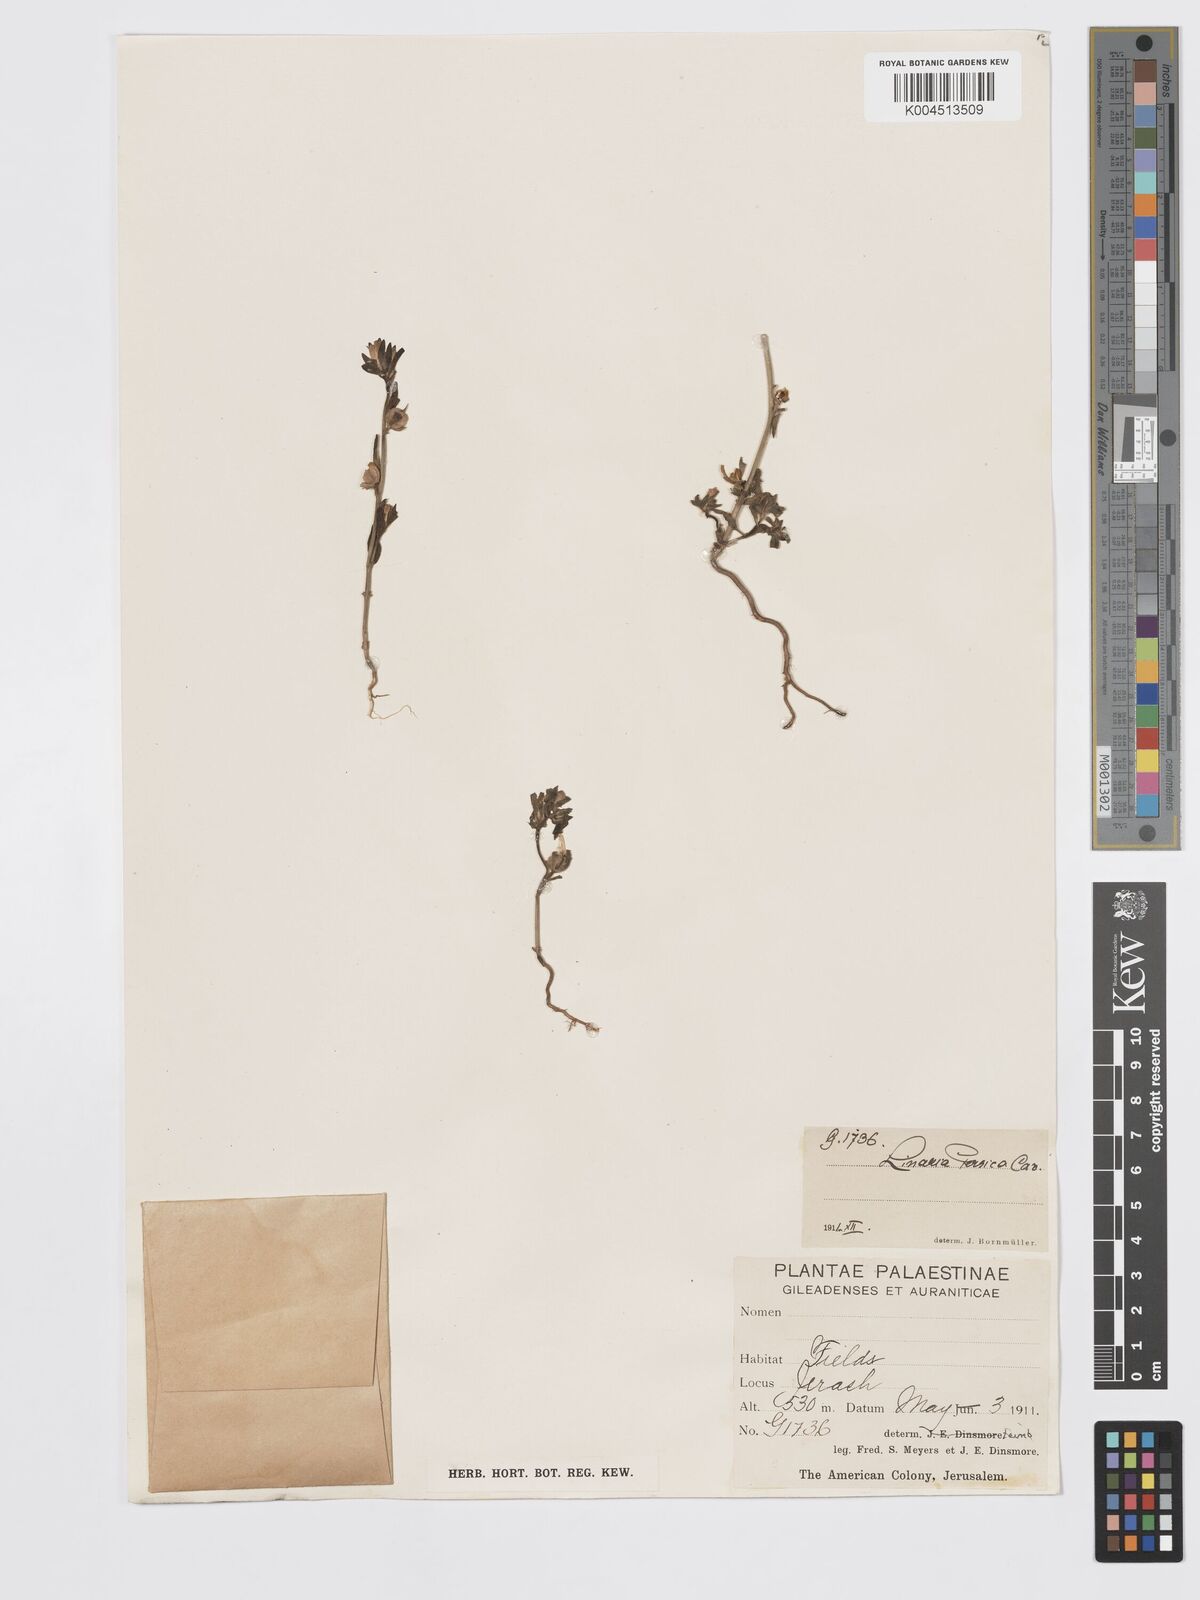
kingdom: Plantae
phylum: Tracheophyta
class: Magnoliopsida
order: Lamiales
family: Plantaginaceae
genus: Chaenorhinum
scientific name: Chaenorhinum calycinum
